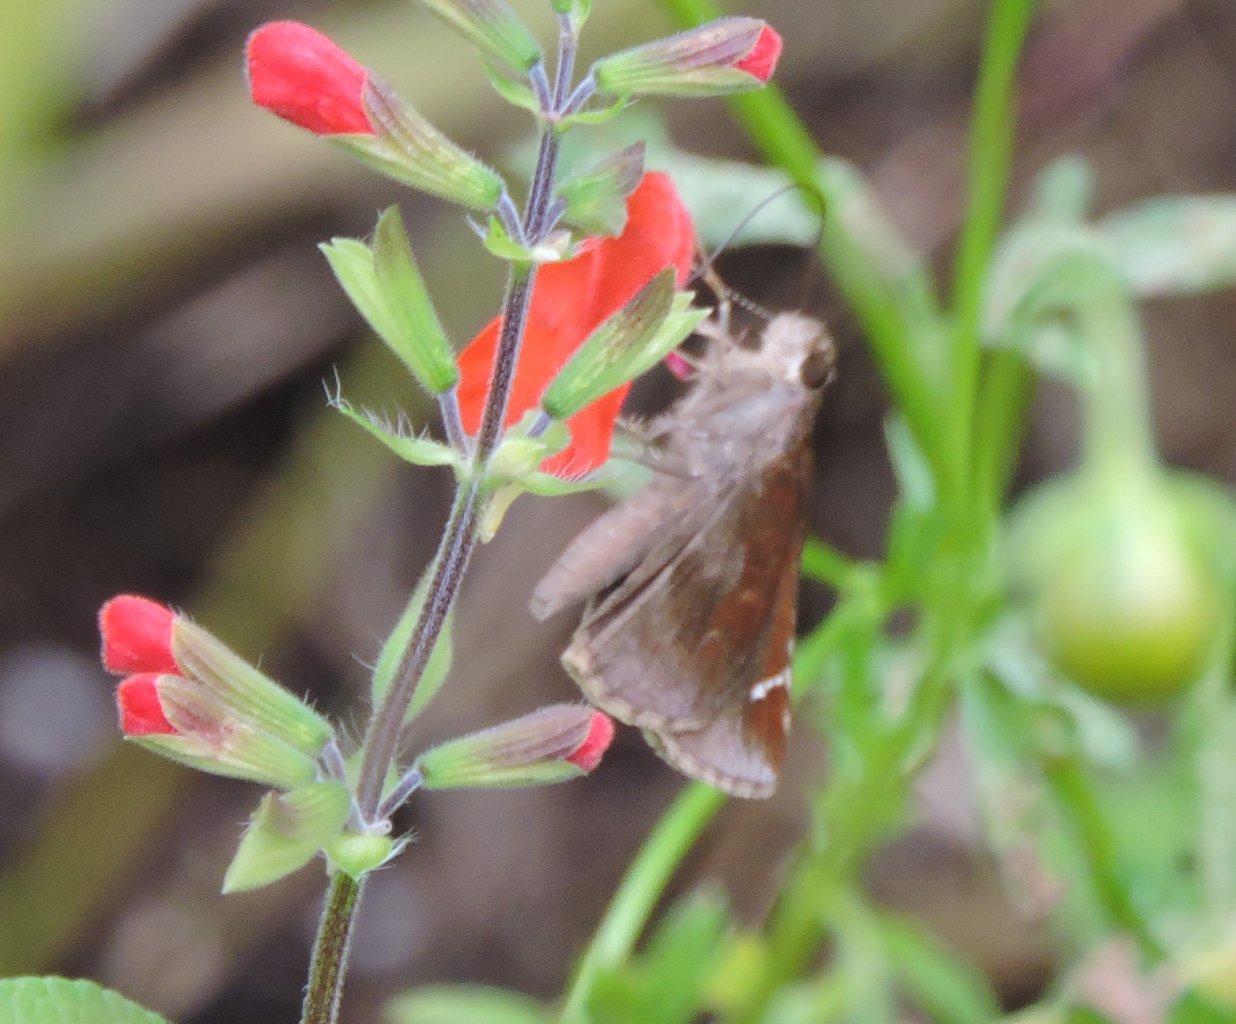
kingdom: Animalia
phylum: Arthropoda
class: Insecta
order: Lepidoptera
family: Hesperiidae
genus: Lerema
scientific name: Lerema accius
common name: Clouded Skipper
